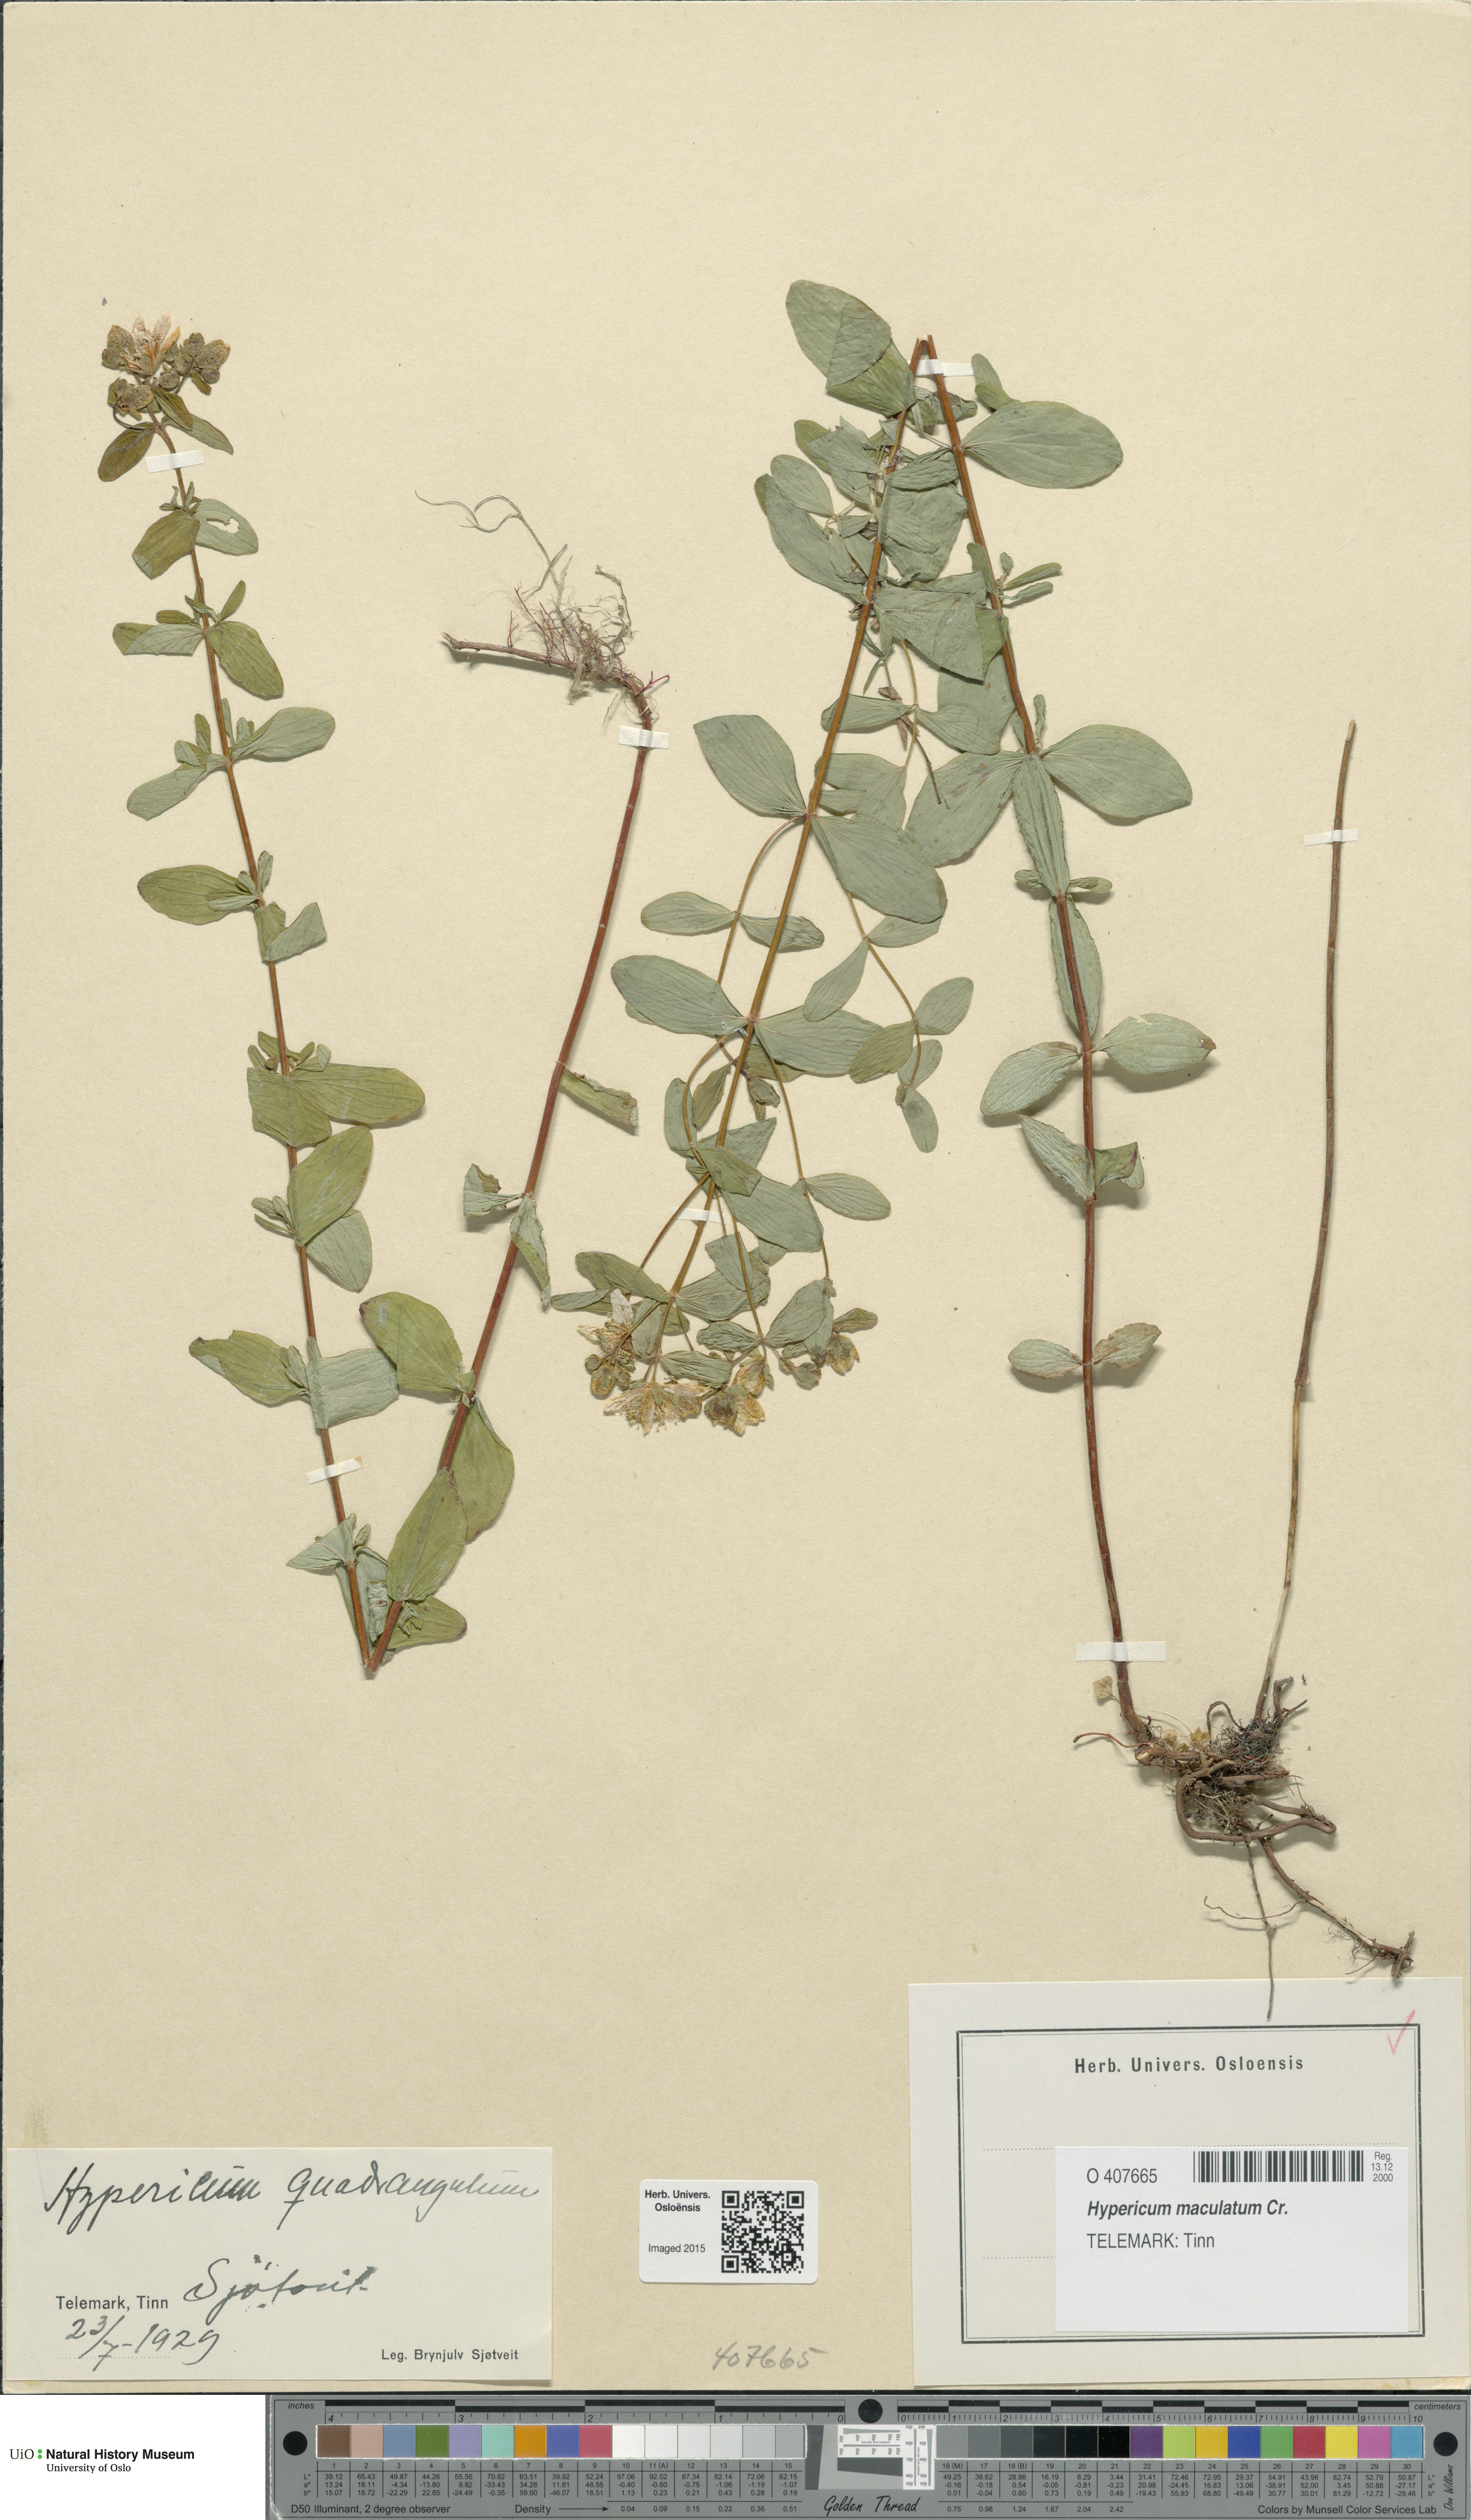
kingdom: Plantae
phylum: Tracheophyta
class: Magnoliopsida
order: Malpighiales
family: Hypericaceae
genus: Hypericum
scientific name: Hypericum maculatum
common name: Imperforate st. john's-wort
